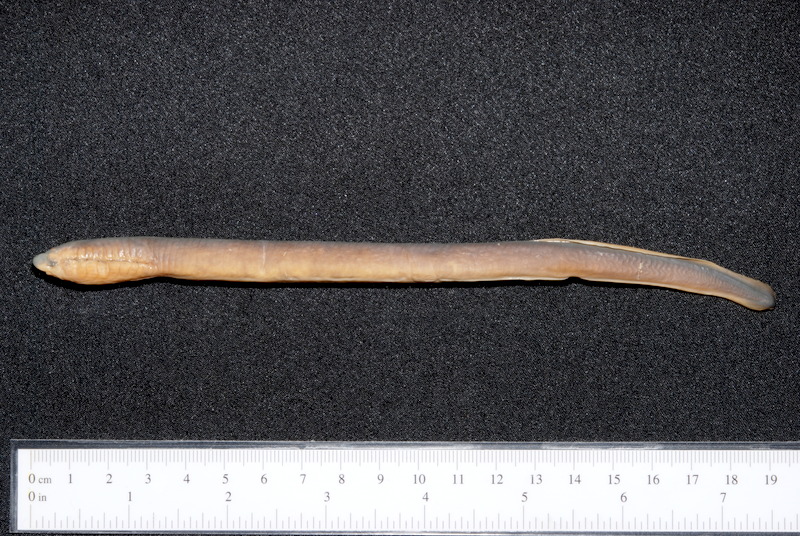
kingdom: Animalia
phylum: Chordata
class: Petromyzonti
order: Petromyzontiformes
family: Petromyzontidae
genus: Eudontomyzon
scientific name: Eudontomyzon danfordi
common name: Carpathian brook lamprey
